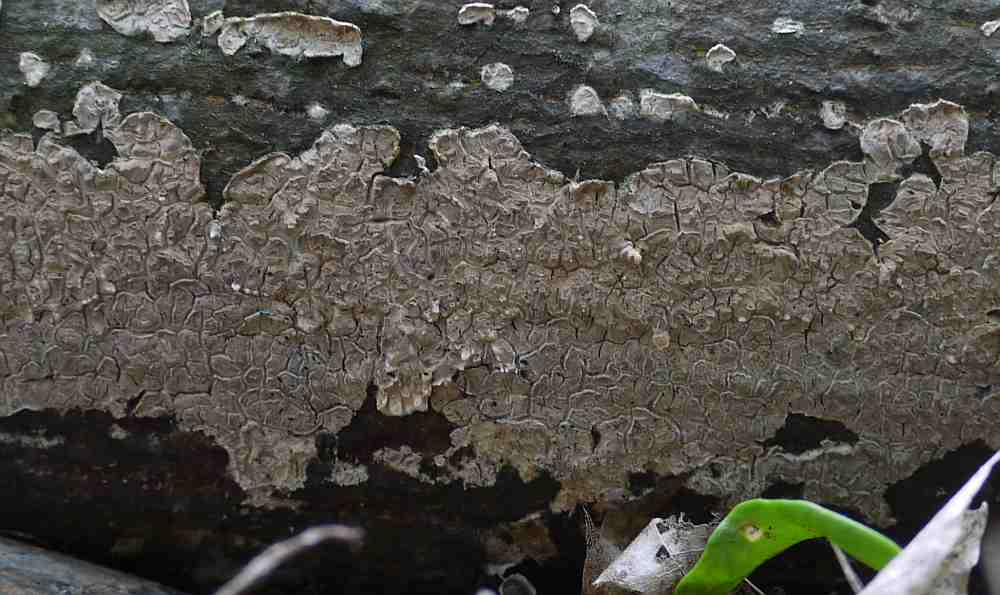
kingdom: Fungi
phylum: Basidiomycota
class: Agaricomycetes
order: Agaricales
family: Physalacriaceae
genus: Cylindrobasidium
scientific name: Cylindrobasidium evolvens
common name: sprækkehinde
